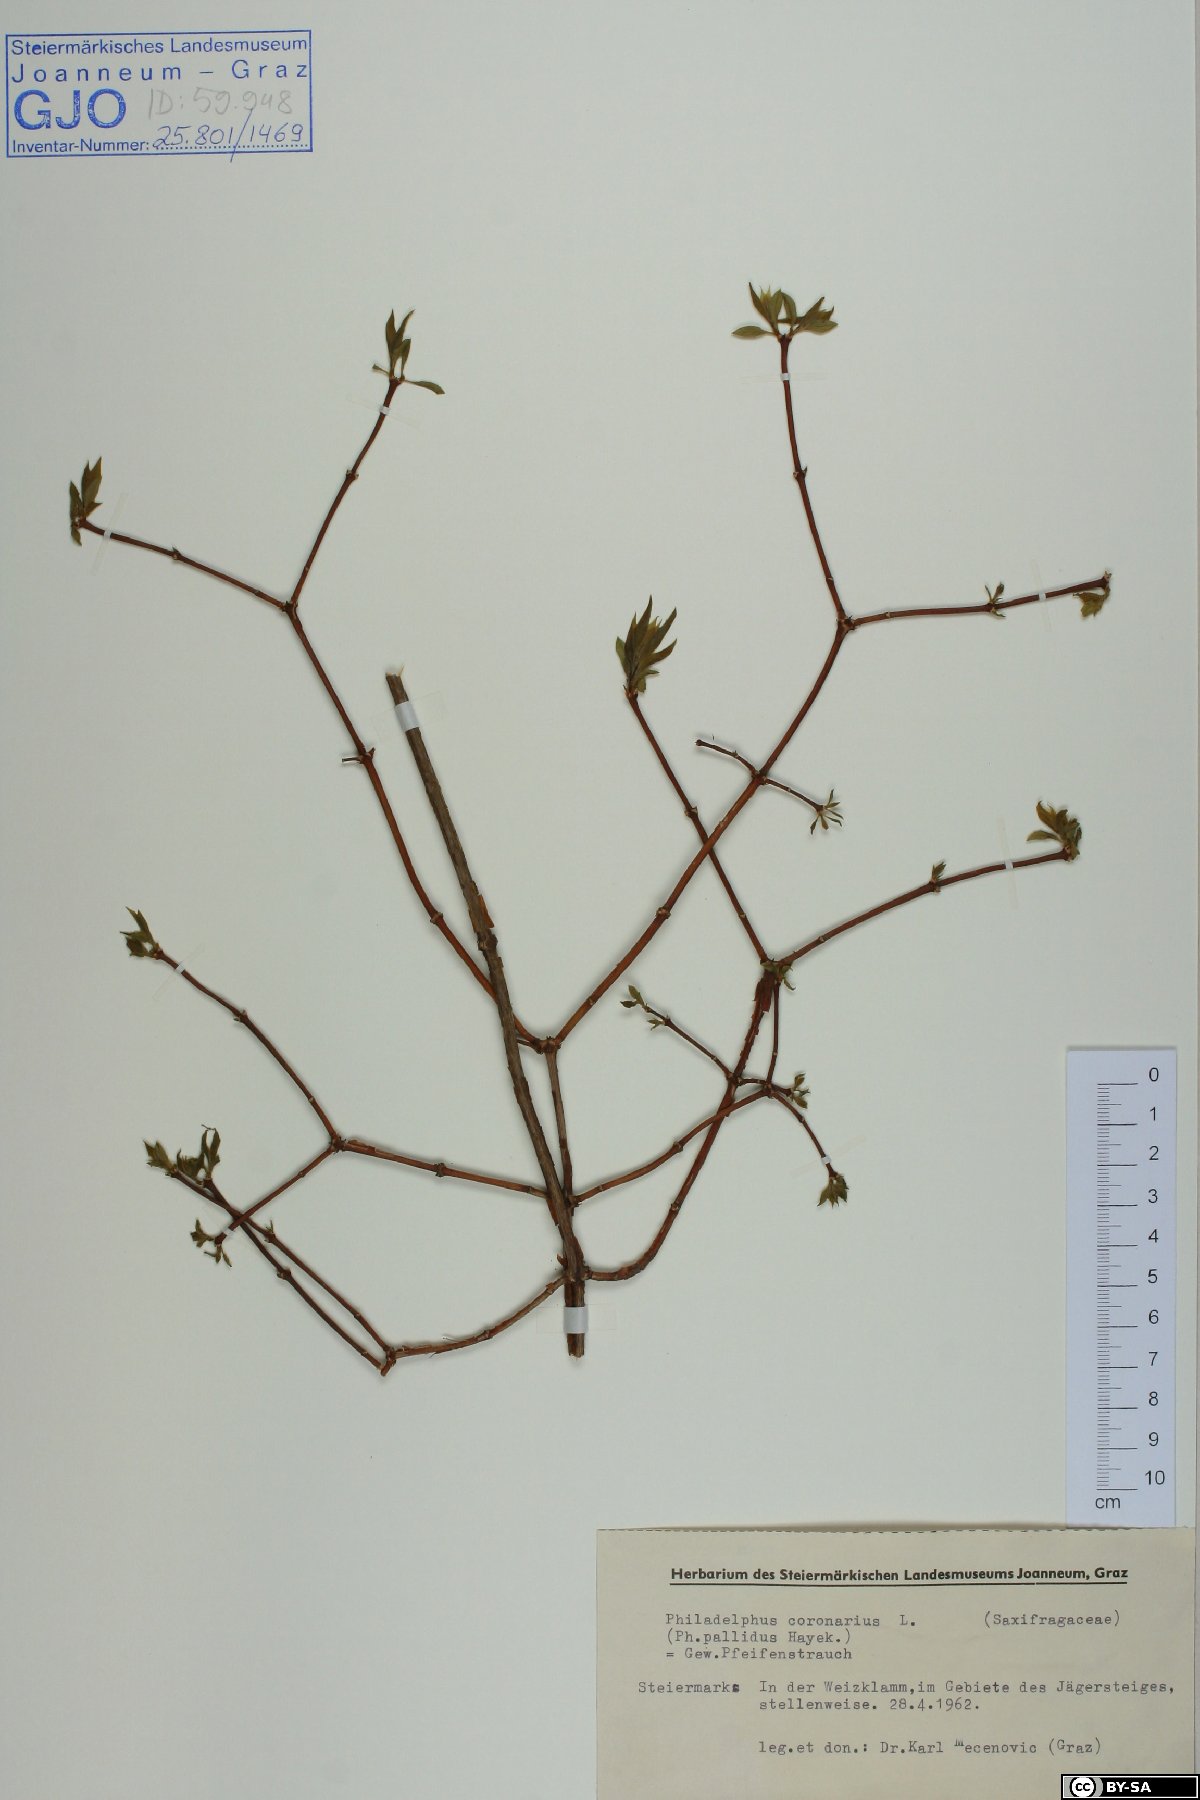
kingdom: Plantae
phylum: Tracheophyta
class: Magnoliopsida
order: Cornales
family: Hydrangeaceae
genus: Philadelphus
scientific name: Philadelphus coronarius
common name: Mock orange
